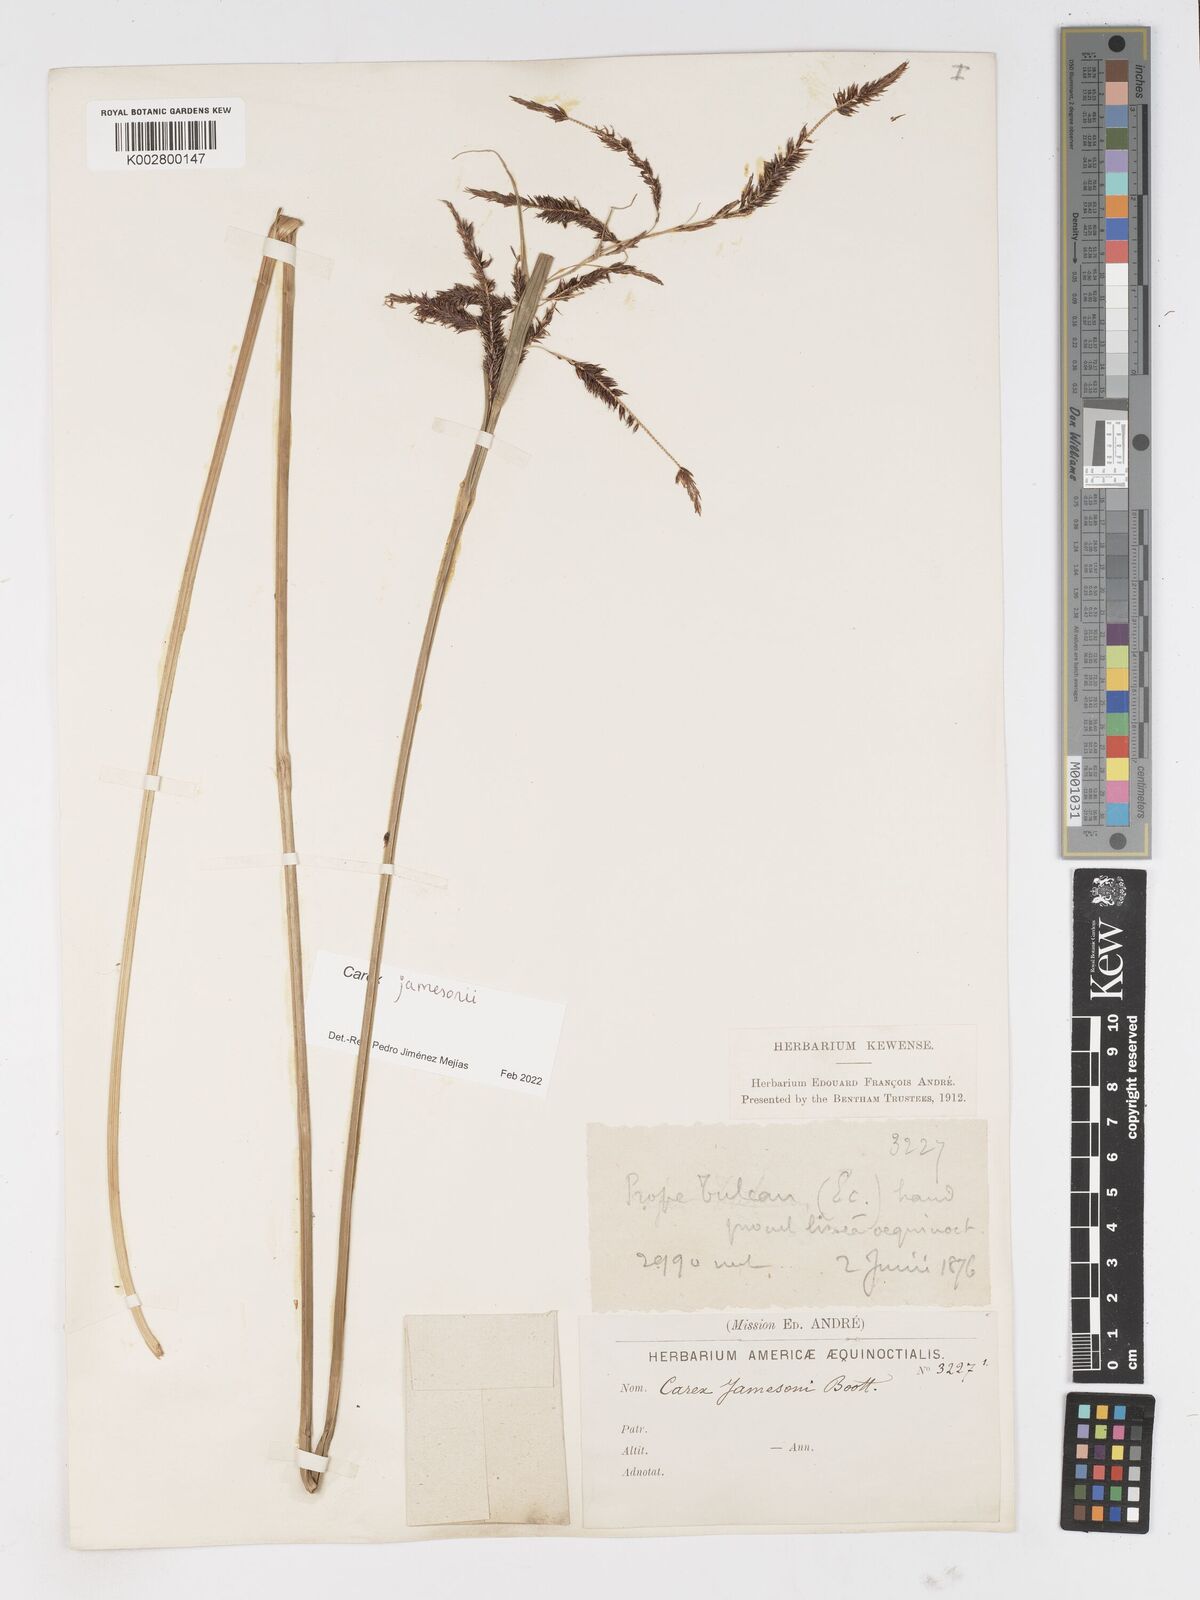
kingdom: Plantae
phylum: Tracheophyta
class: Liliopsida
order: Poales
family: Cyperaceae
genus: Carex
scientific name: Carex jamesonii
